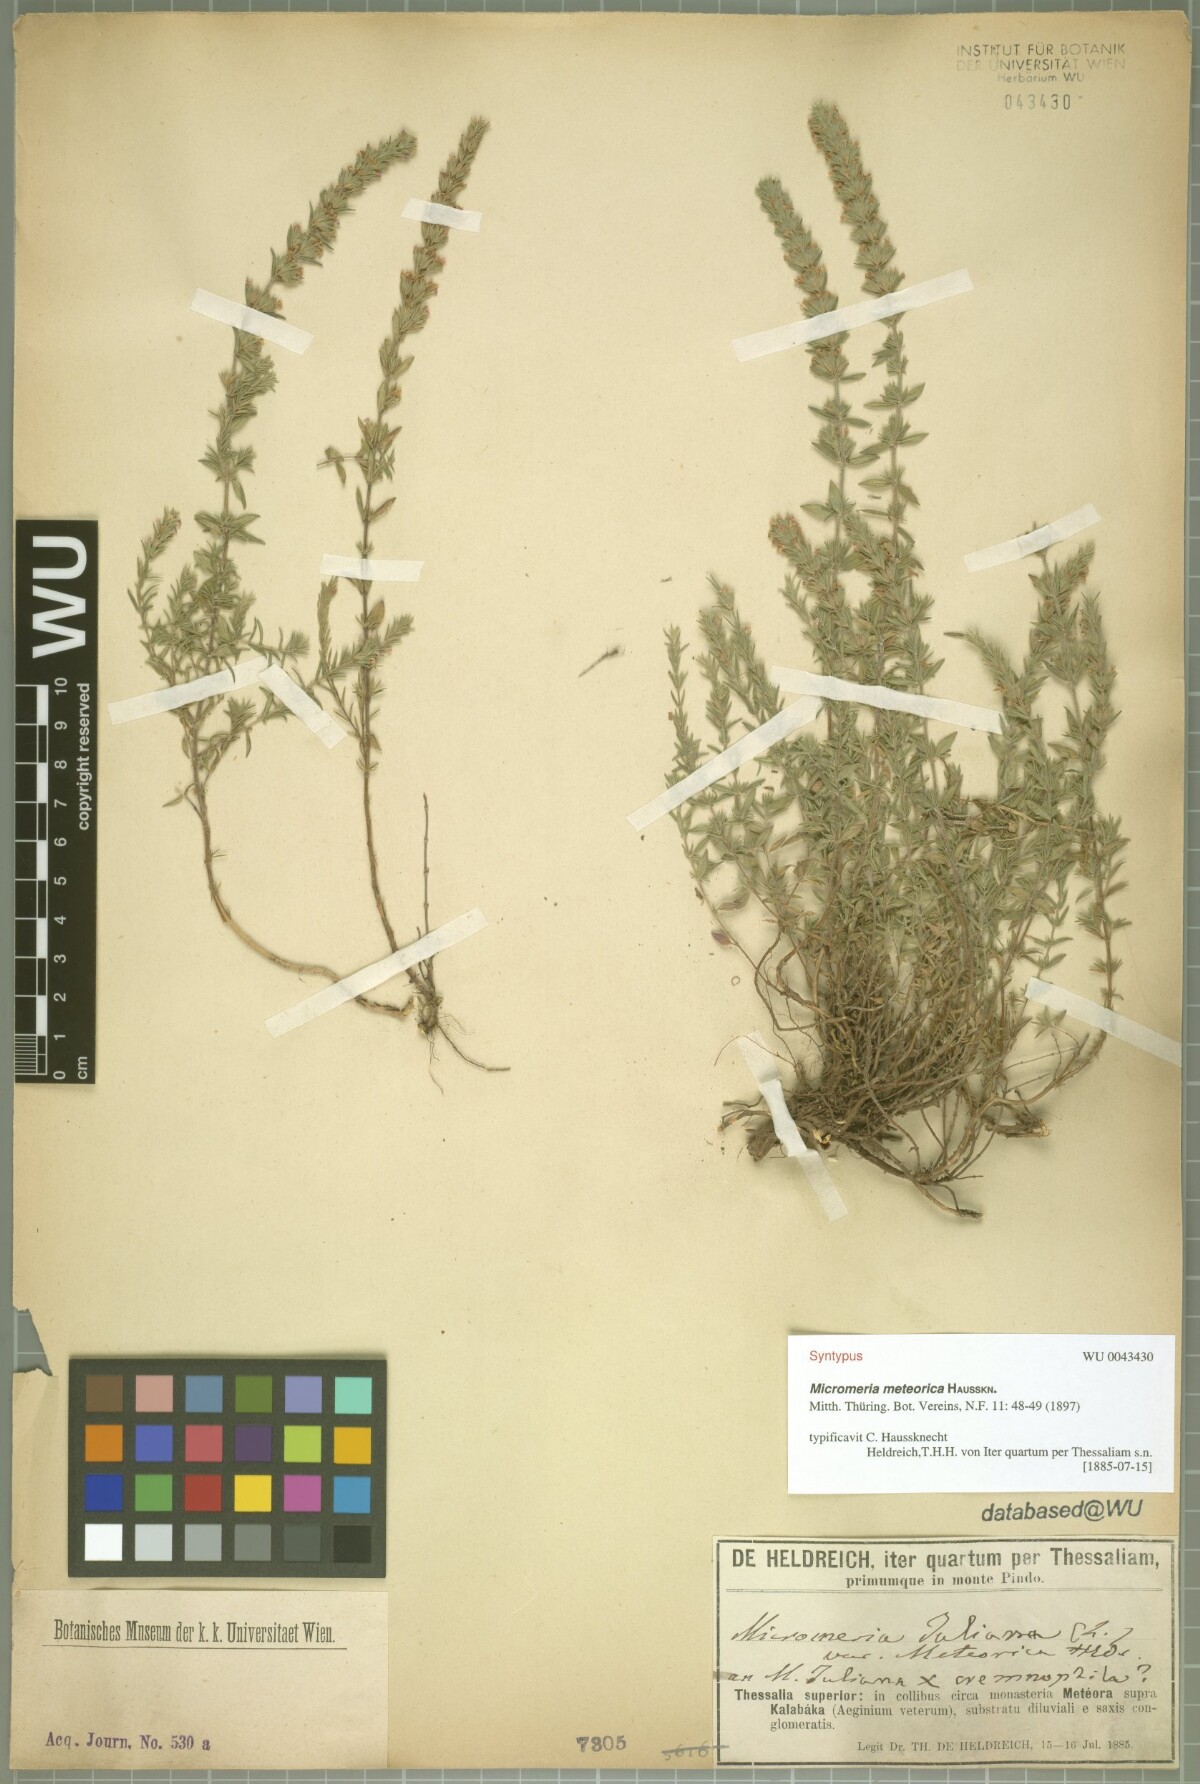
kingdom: Plantae
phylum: Tracheophyta
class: Magnoliopsida
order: Lamiales
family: Lamiaceae
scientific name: Lamiaceae
